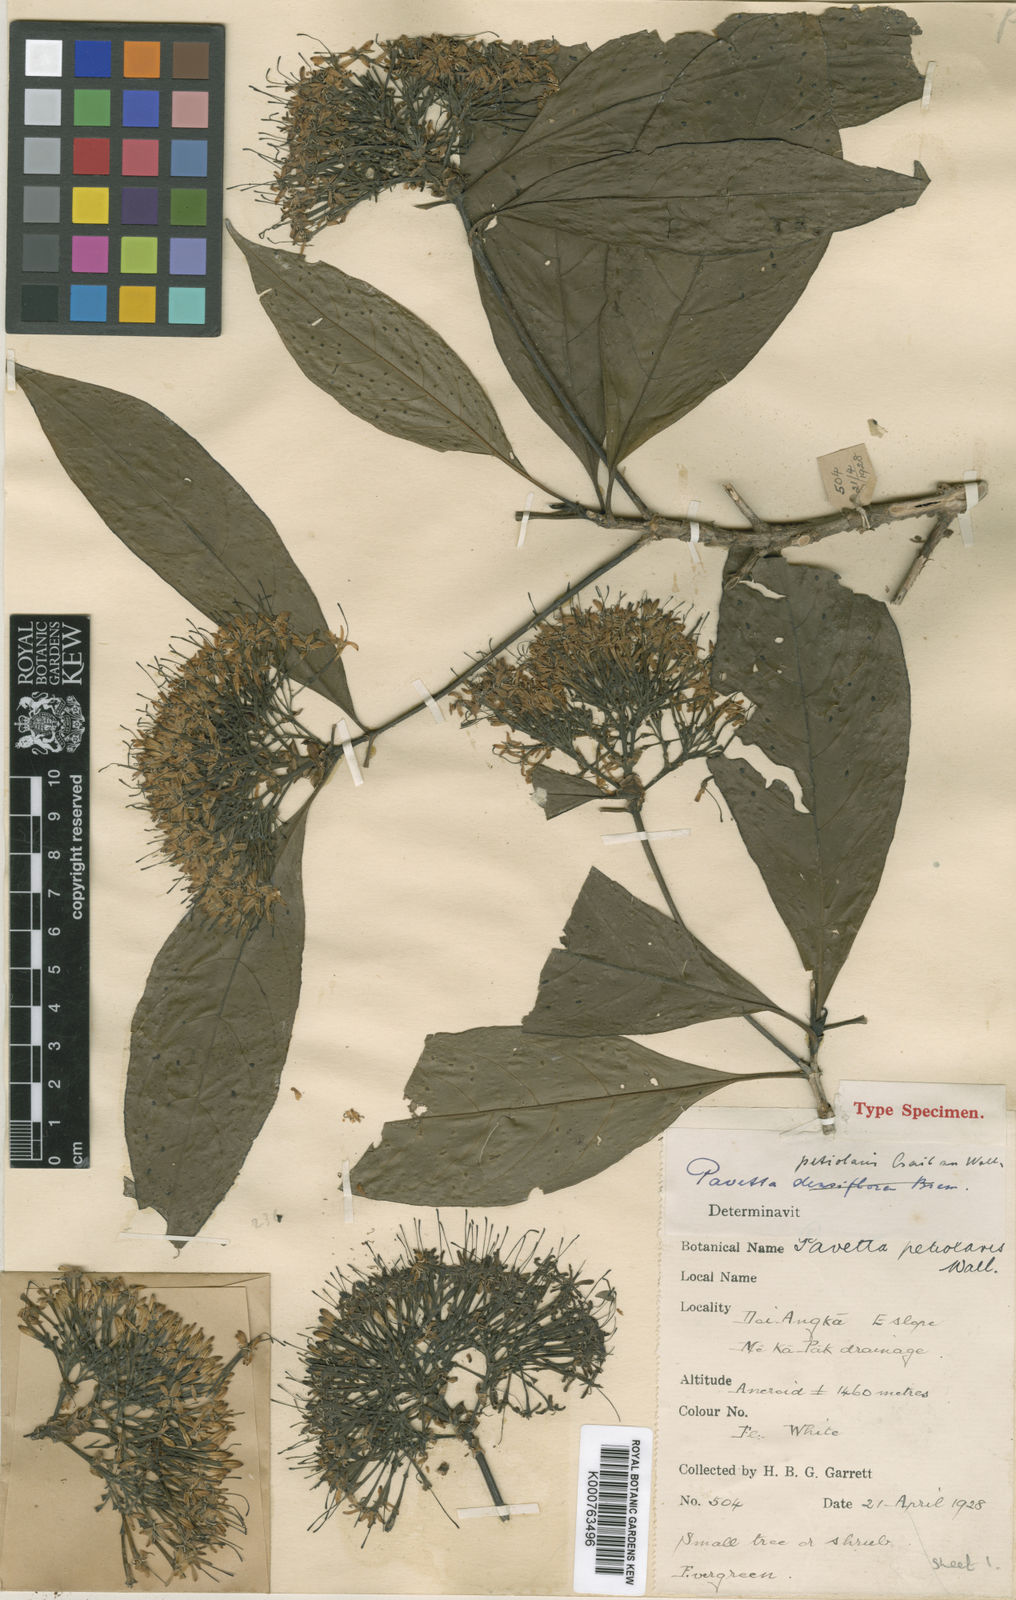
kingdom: Plantae
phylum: Tracheophyta
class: Magnoliopsida
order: Gentianales
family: Rubiaceae
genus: Pavetta
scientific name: Pavetta
